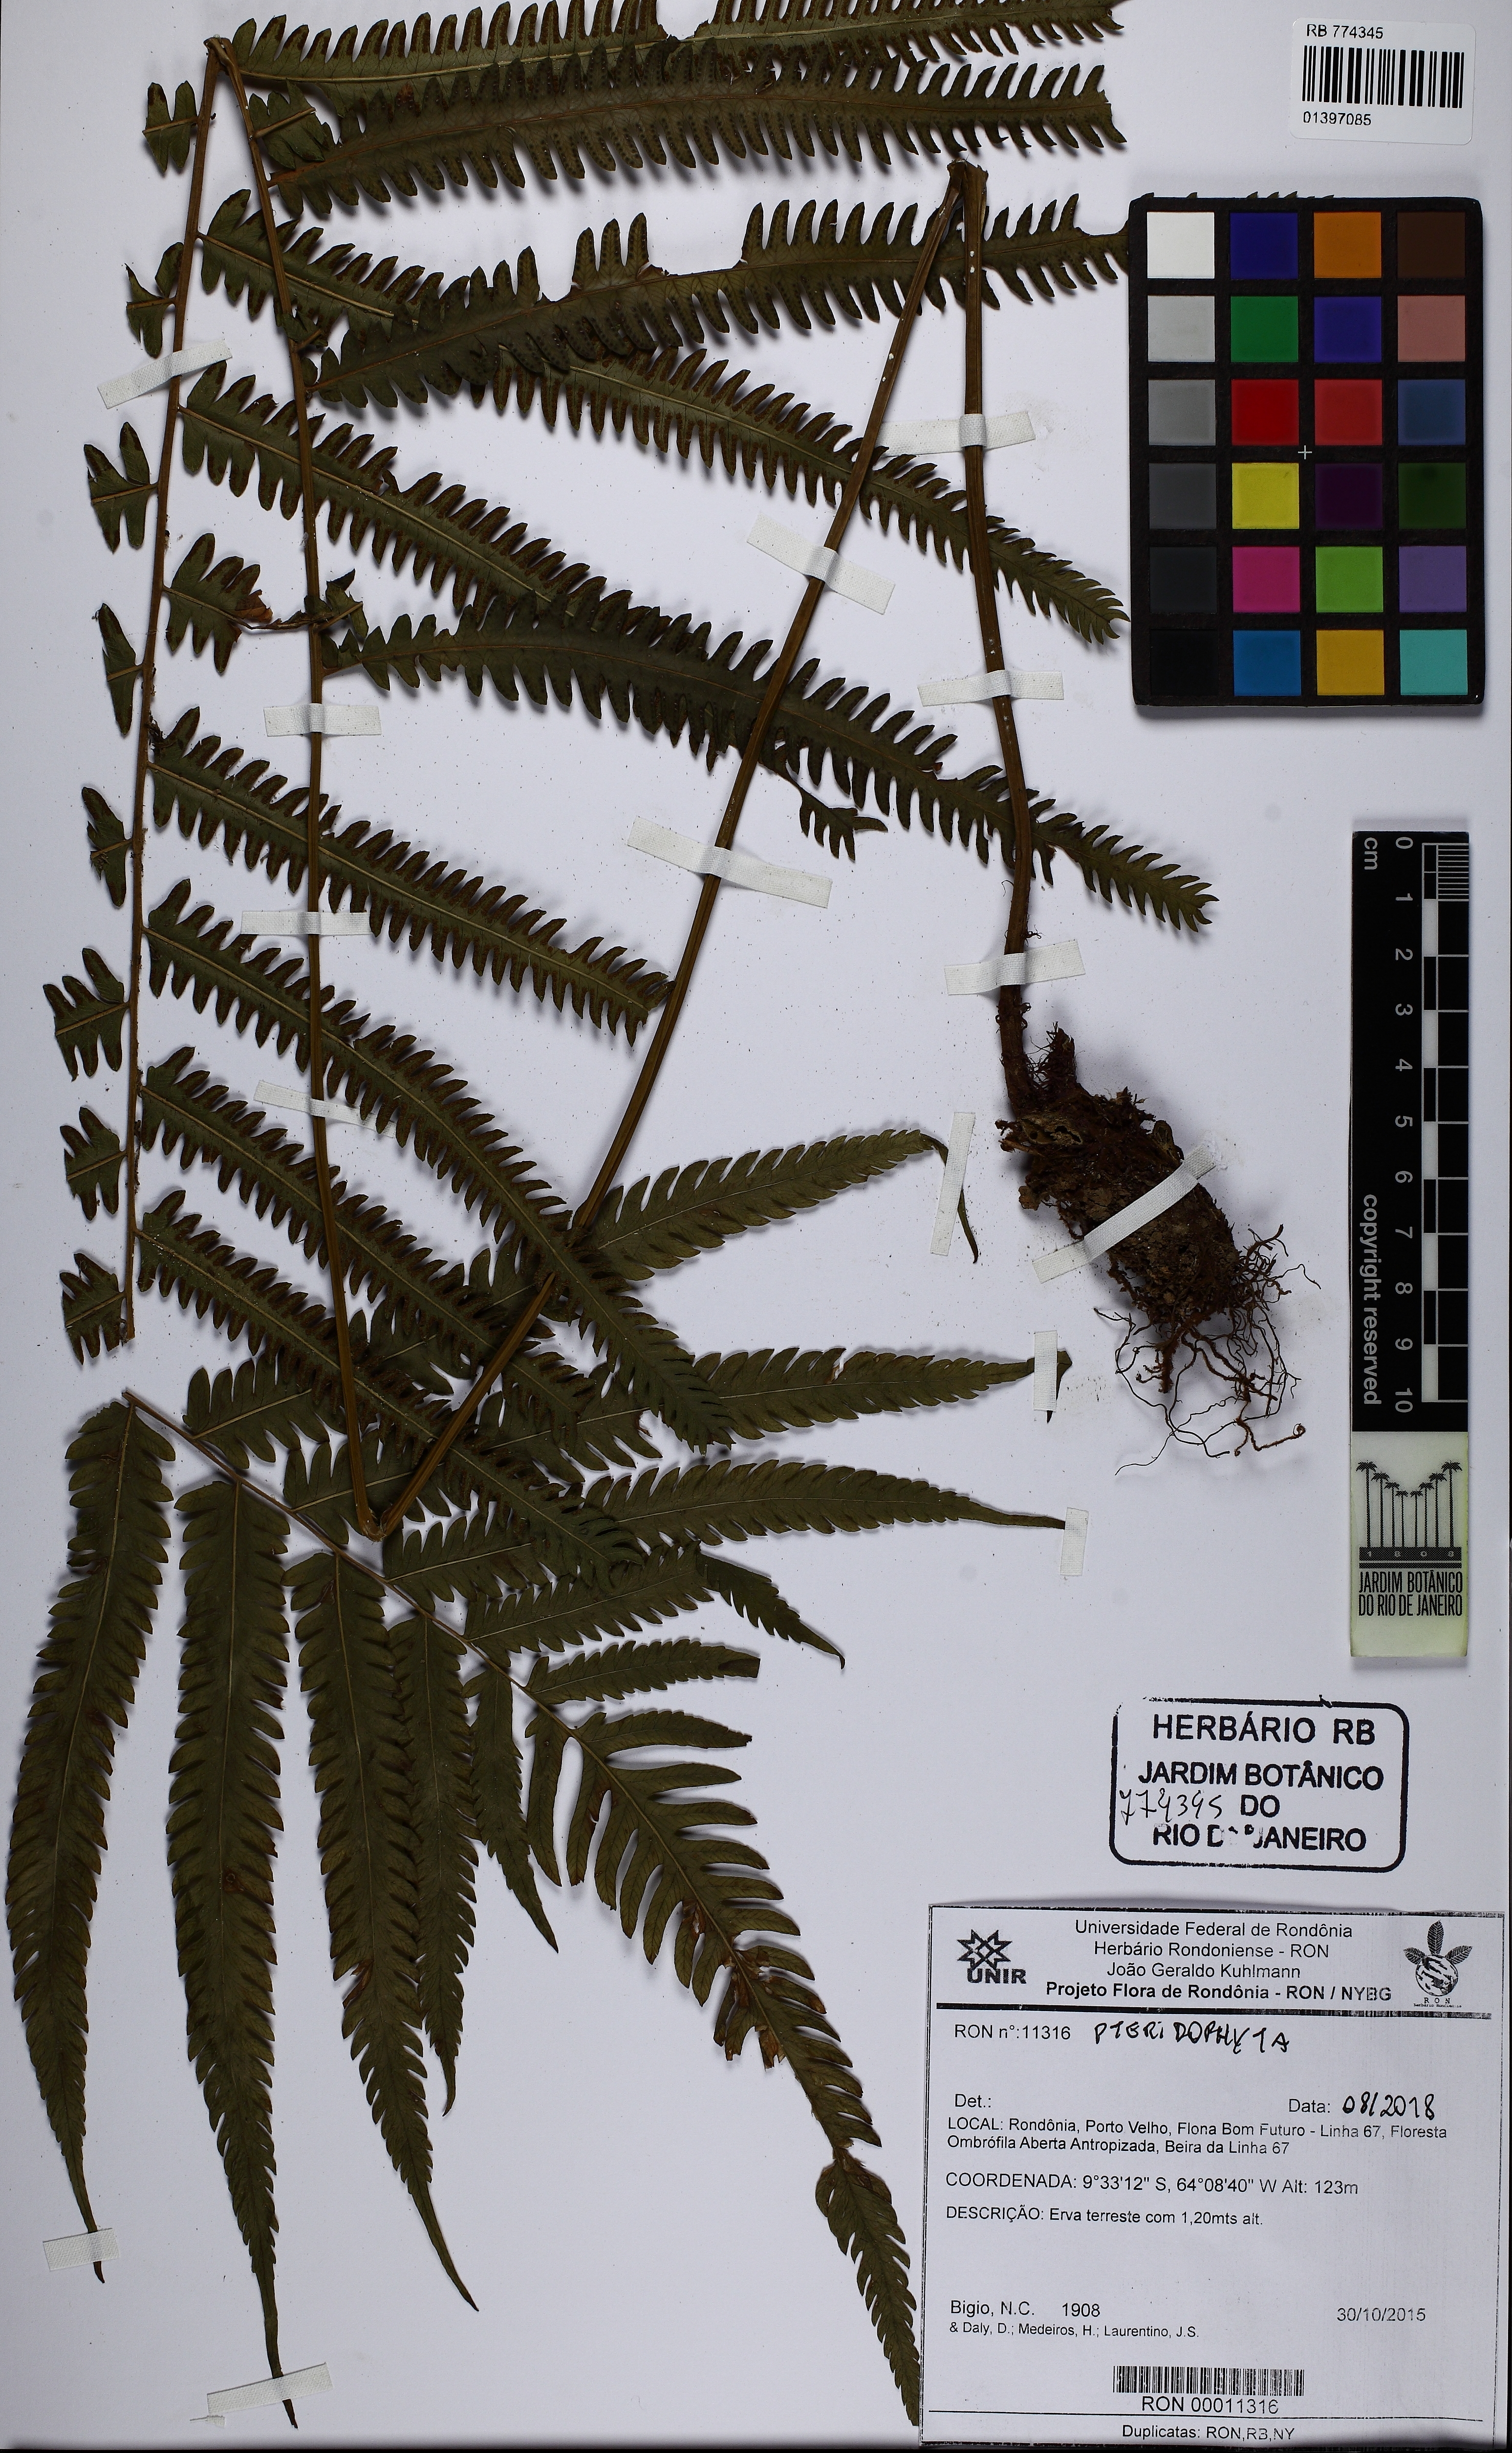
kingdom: Plantae
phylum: Tracheophyta
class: Polypodiopsida
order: Polypodiales
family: Thelypteridaceae
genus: Amblovenatum
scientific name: Amblovenatum opulentum
